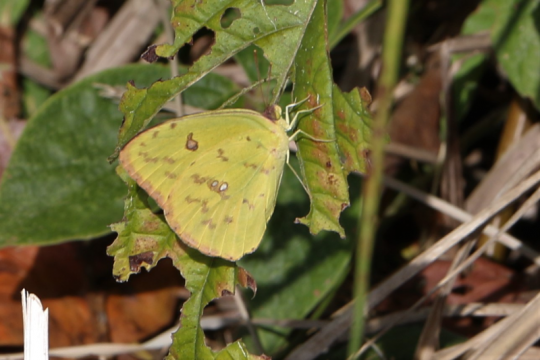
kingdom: Animalia
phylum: Arthropoda
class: Insecta
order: Lepidoptera
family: Pieridae
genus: Phoebis
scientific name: Phoebis sennae
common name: Cloudless Sulphur
